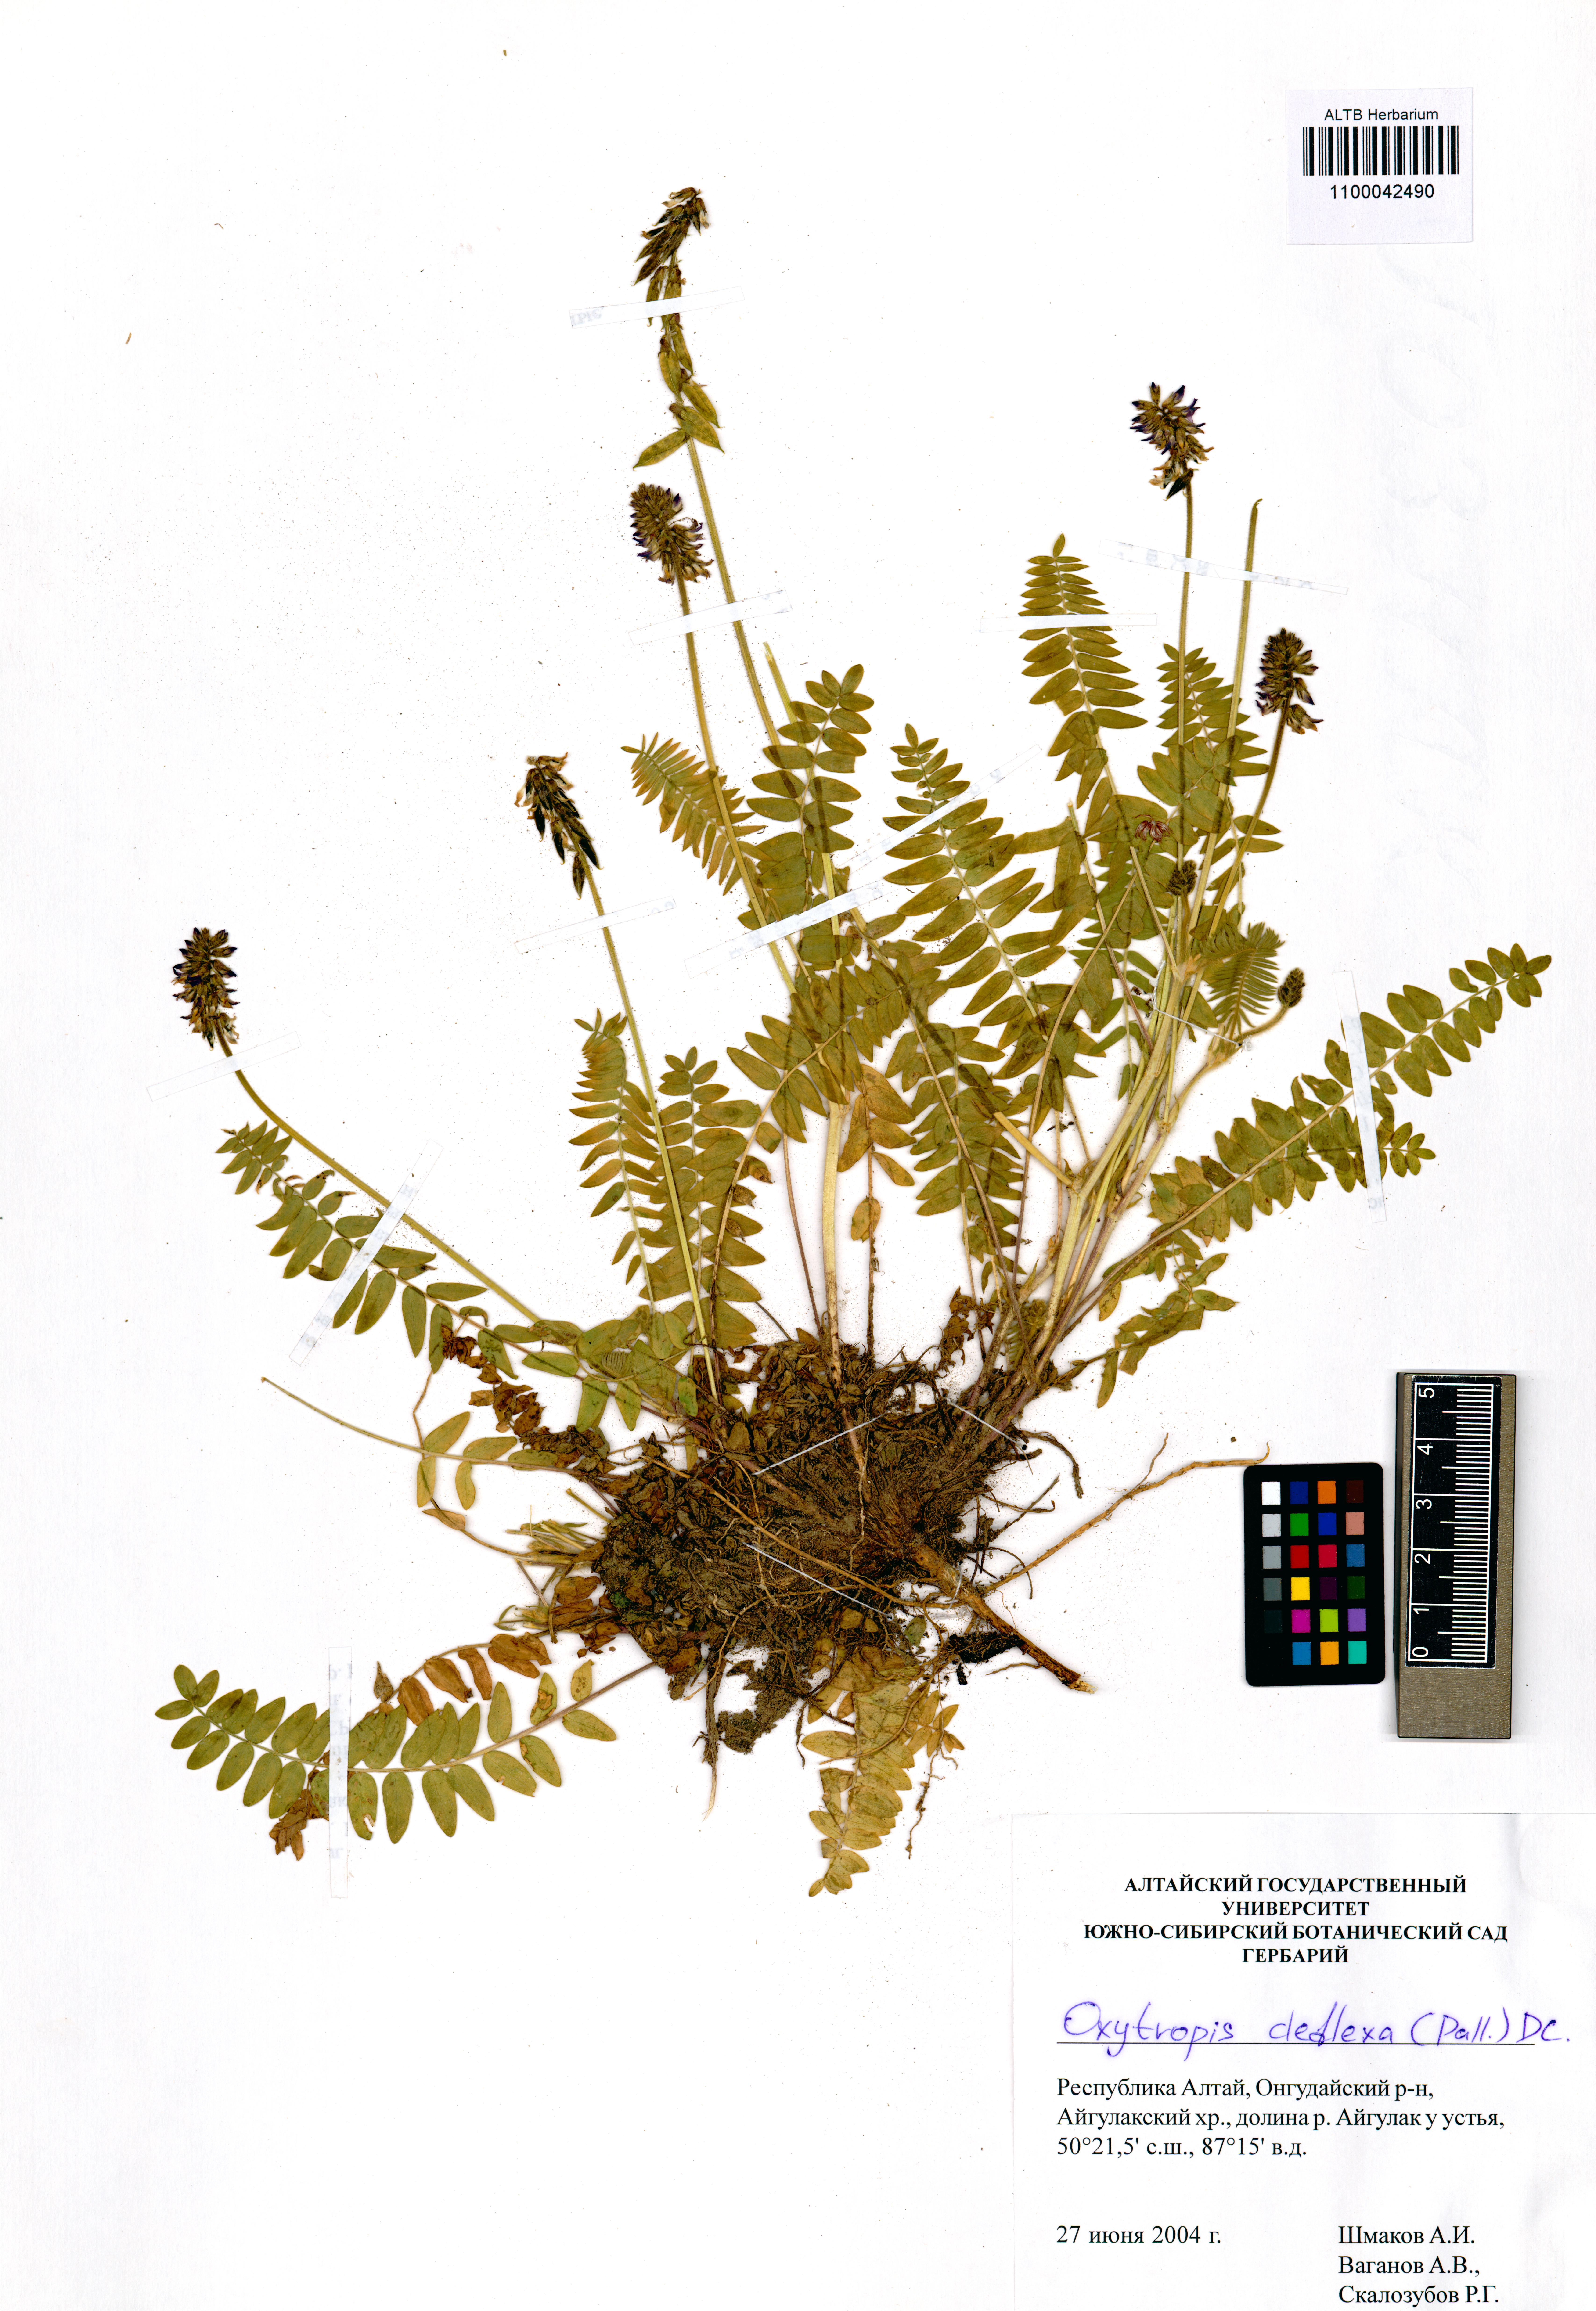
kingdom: Plantae
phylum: Tracheophyta
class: Magnoliopsida
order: Fabales
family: Fabaceae
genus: Oxytropis
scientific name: Oxytropis deflexa
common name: Stemmed oxytrope
